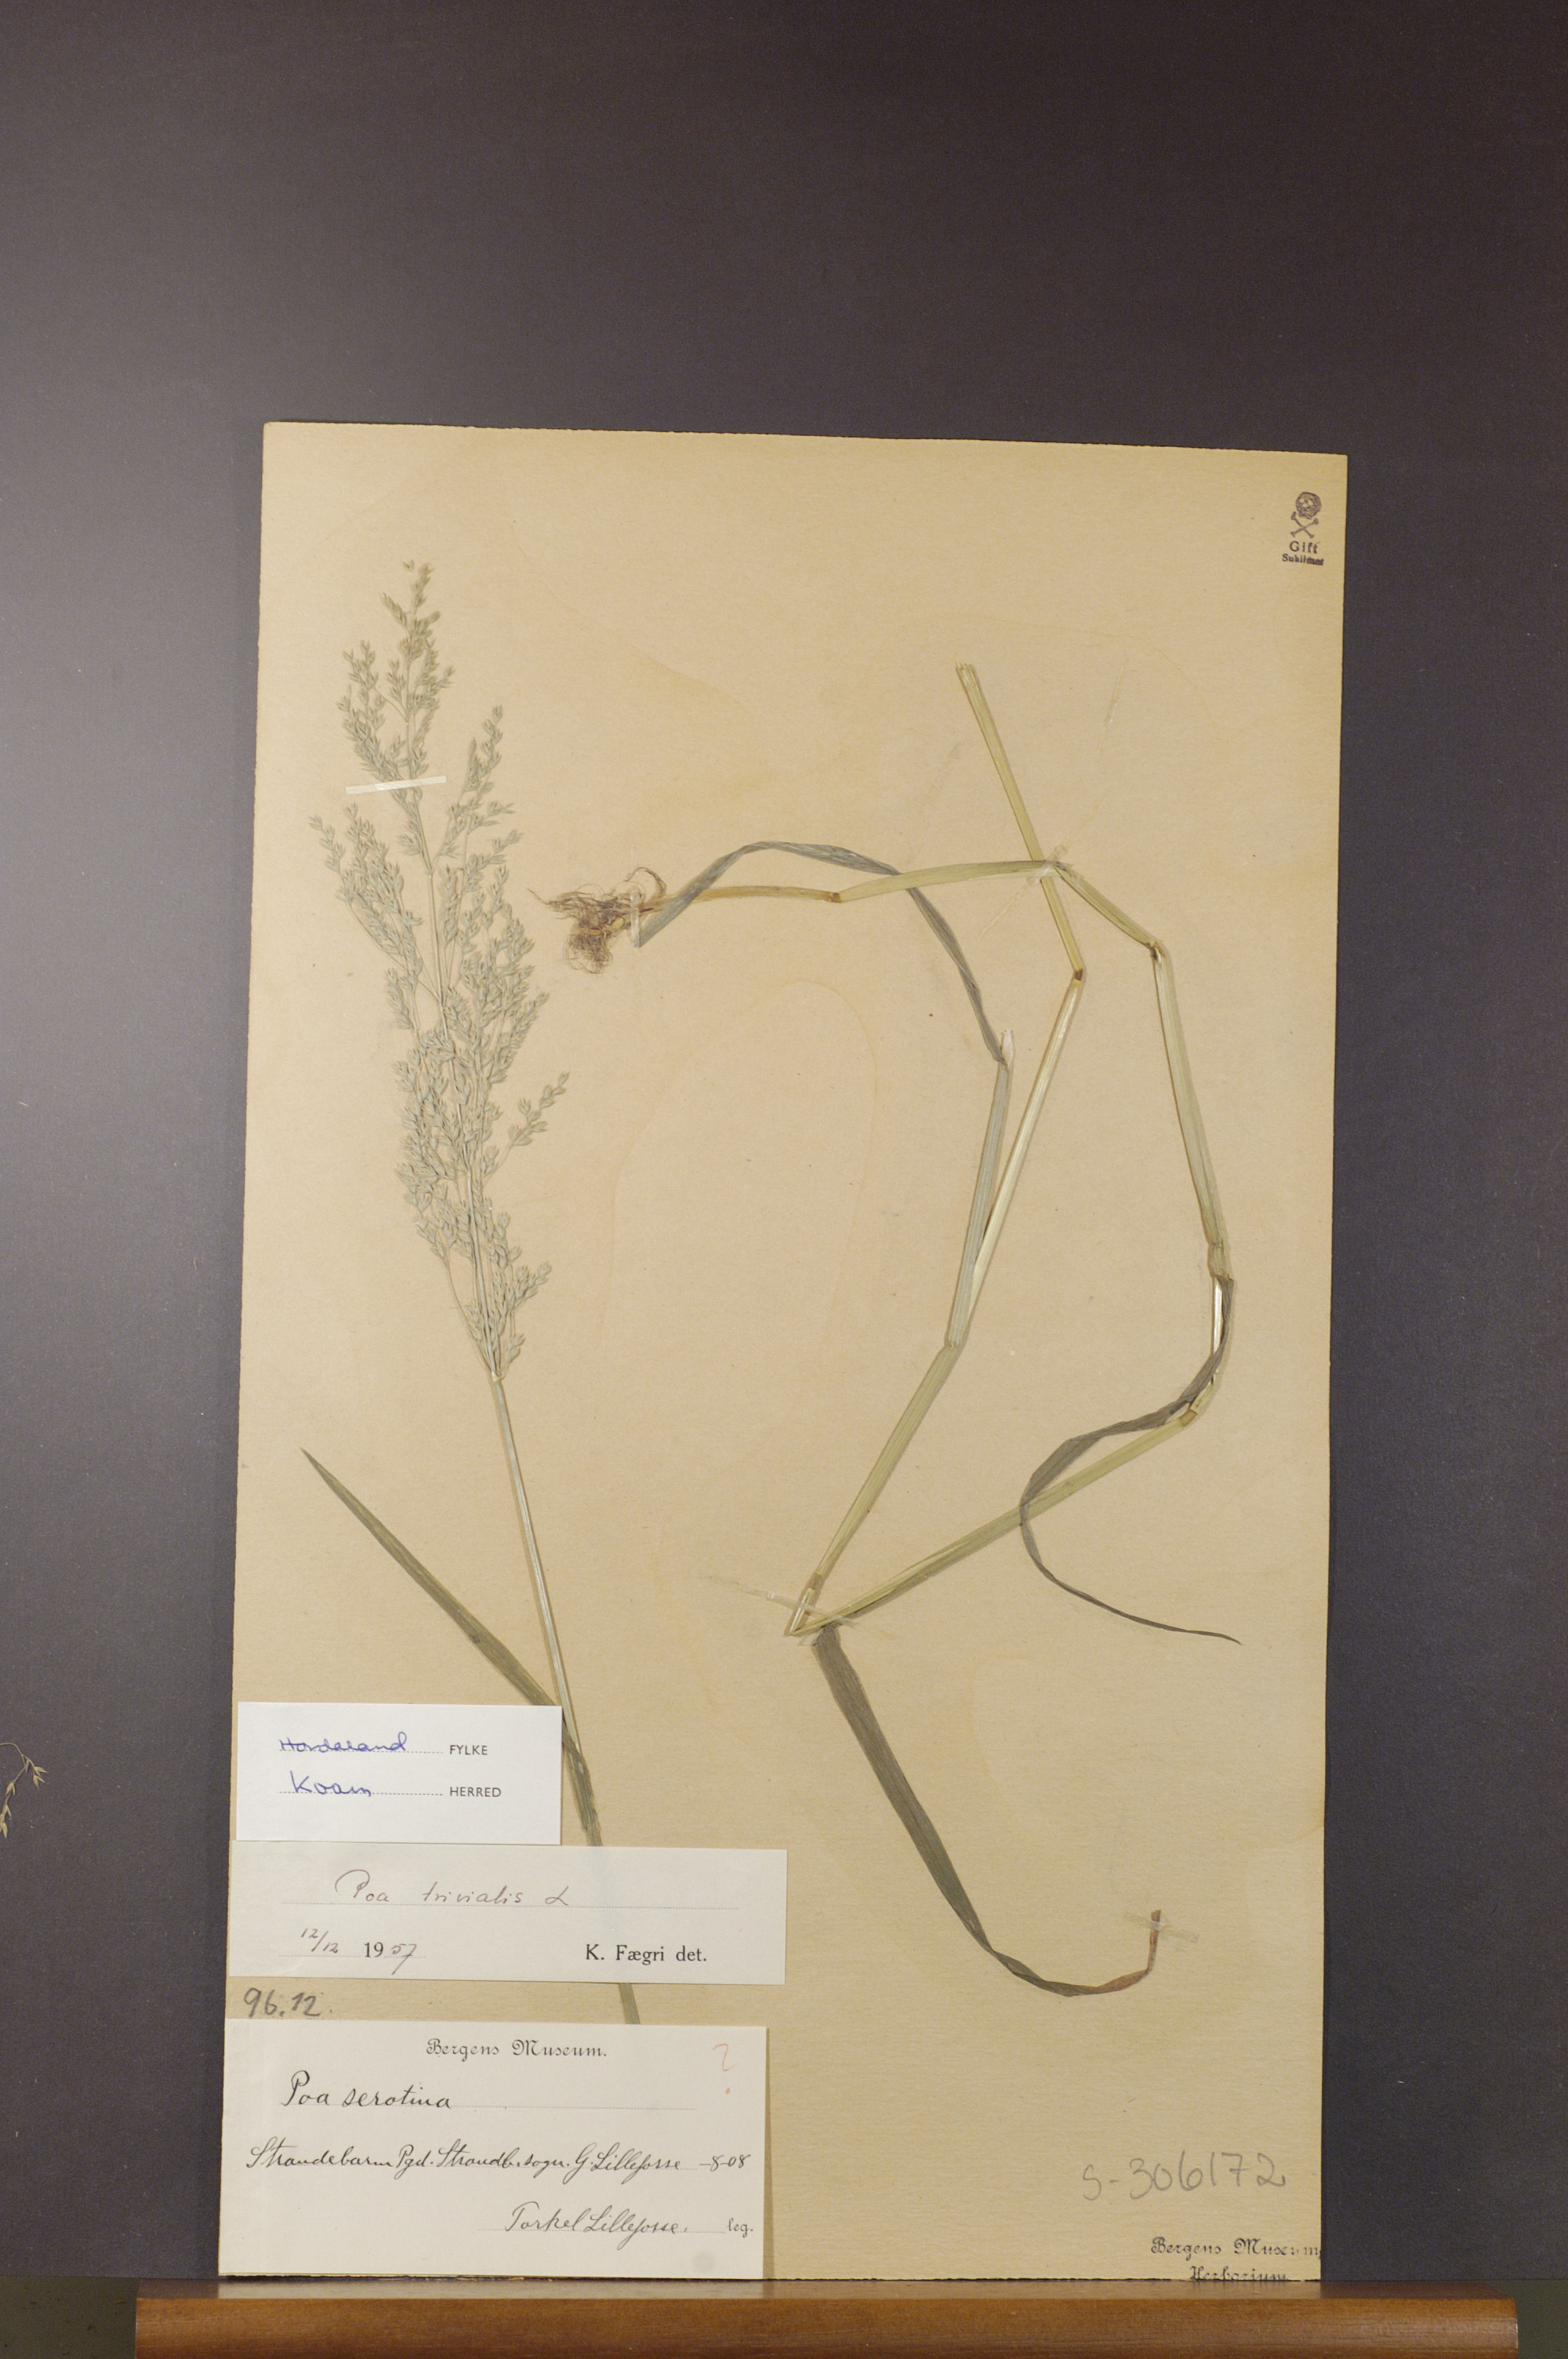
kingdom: Plantae
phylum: Tracheophyta
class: Liliopsida
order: Poales
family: Poaceae
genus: Poa
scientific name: Poa trivialis
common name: Rough bluegrass
